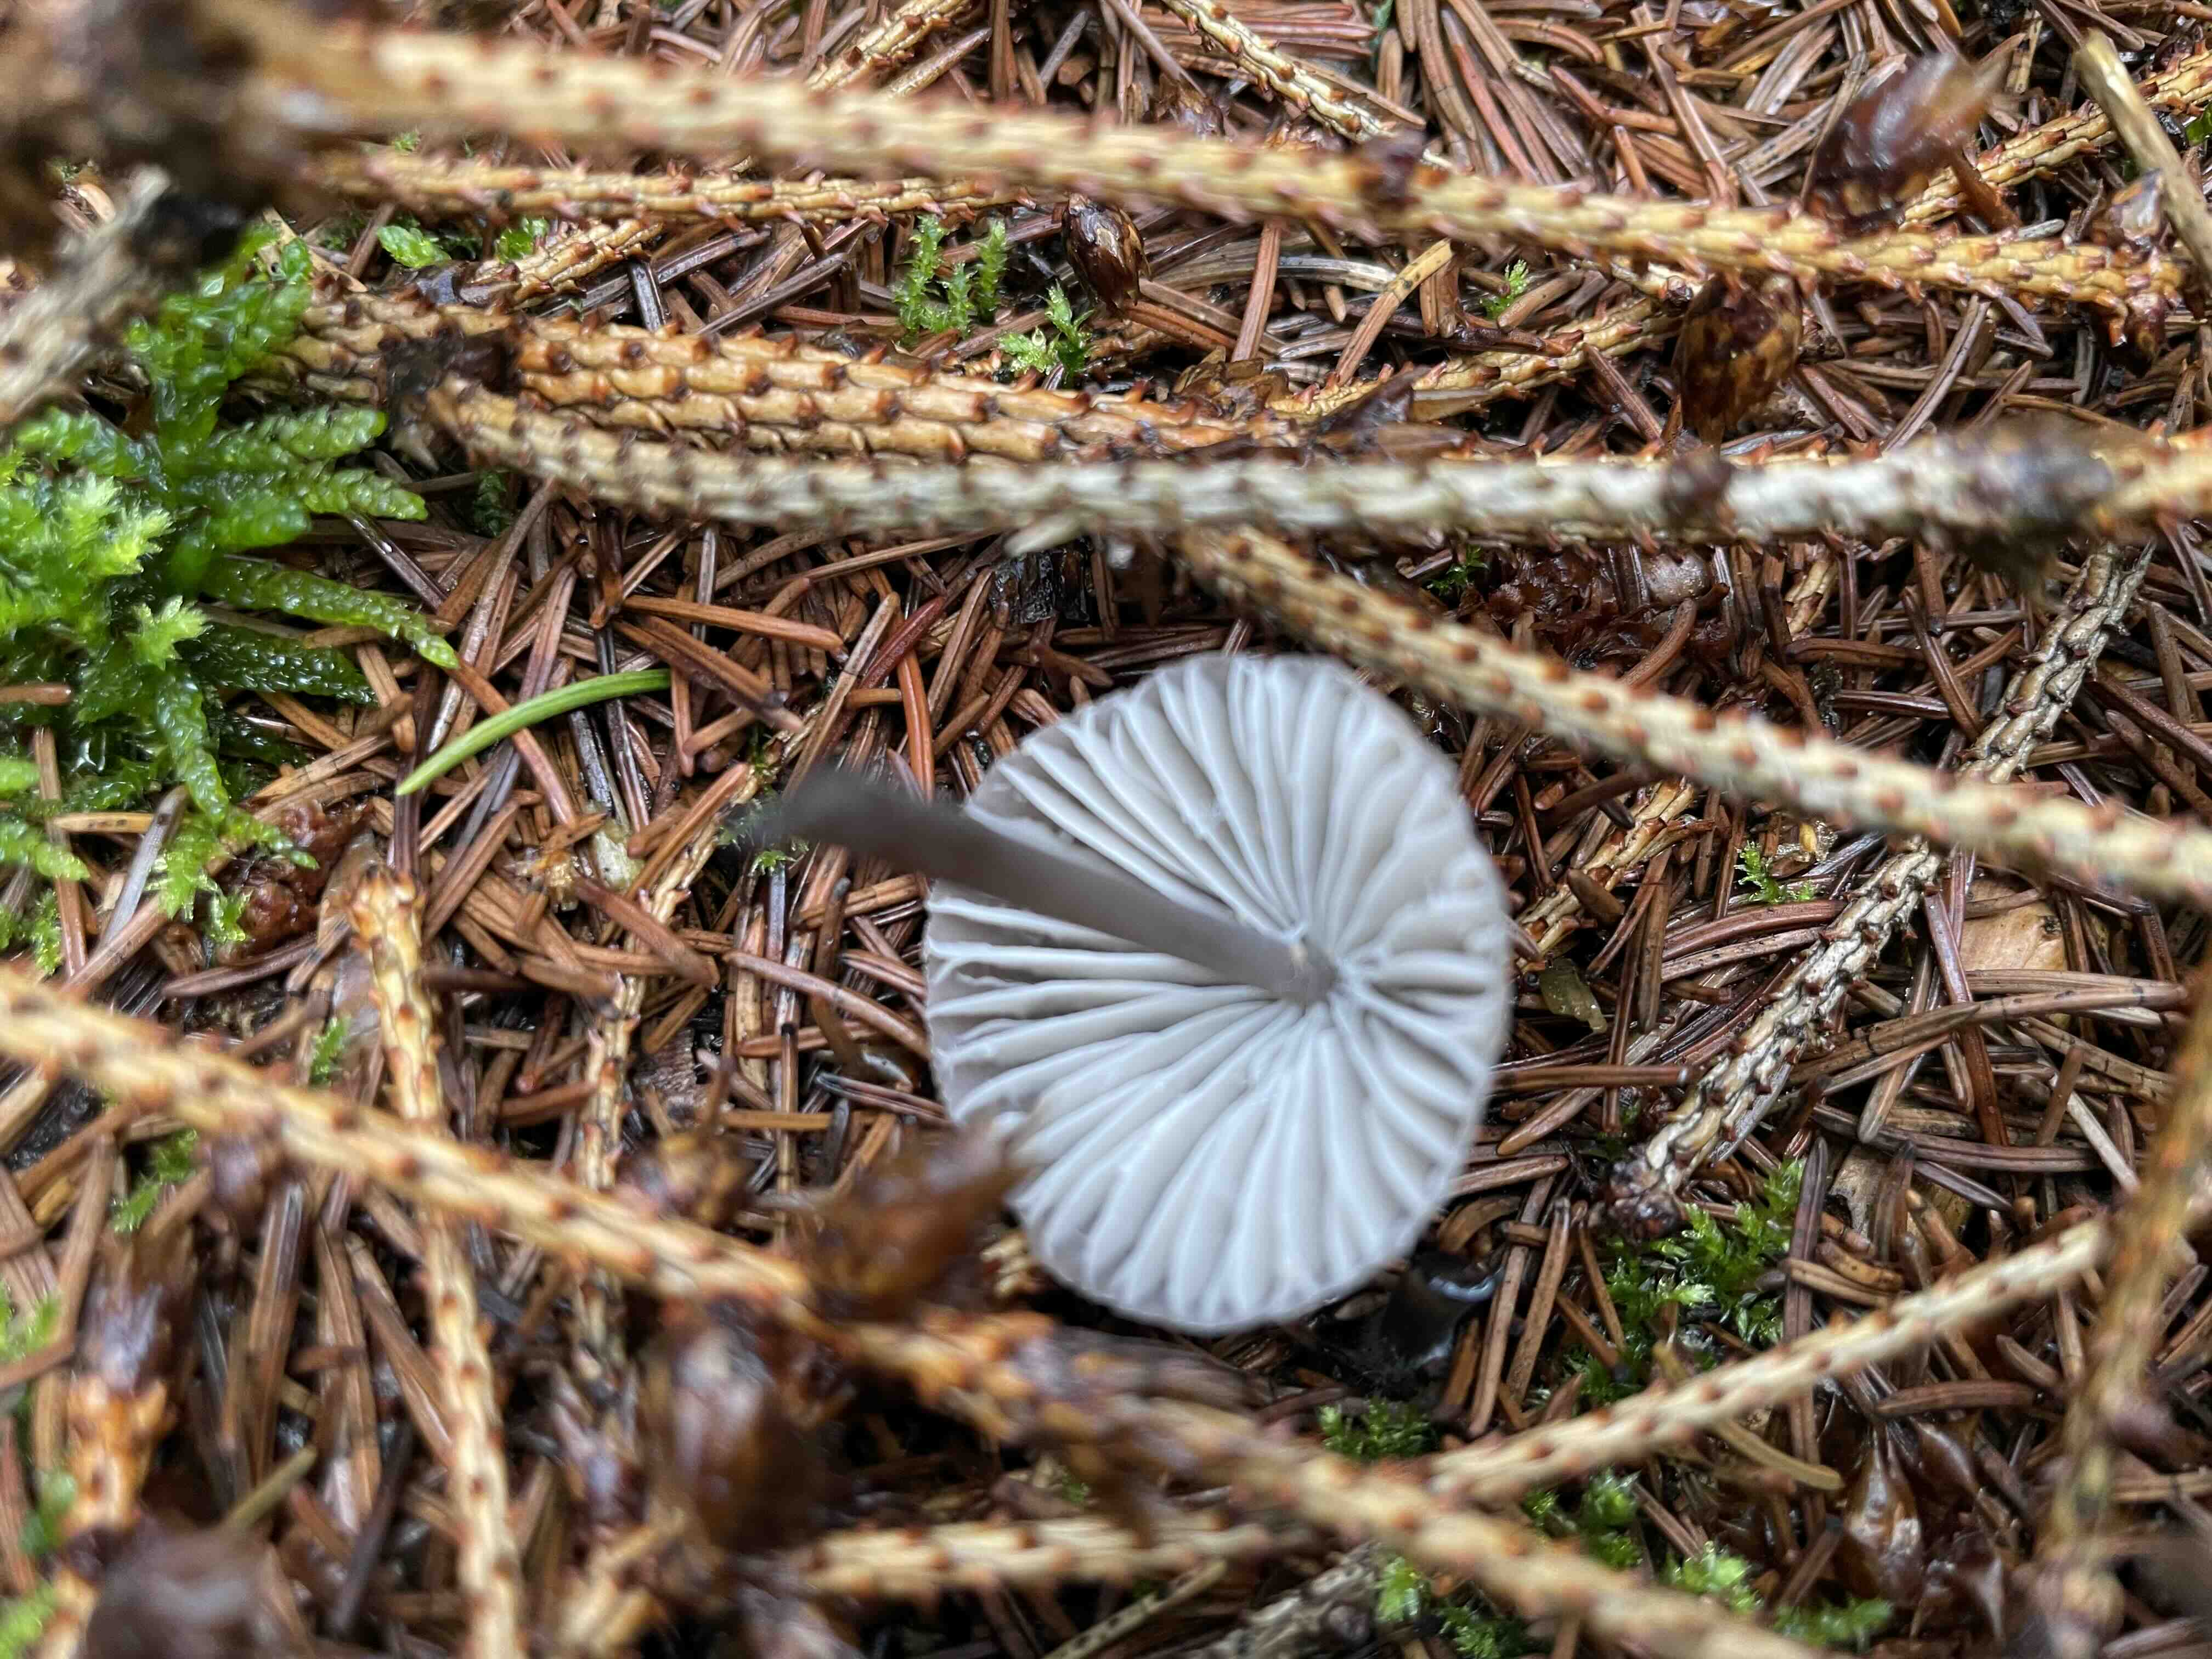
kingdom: Fungi
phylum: Basidiomycota
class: Agaricomycetes
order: Agaricales
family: Mycenaceae
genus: Mycena
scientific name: Mycena
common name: huesvamp
